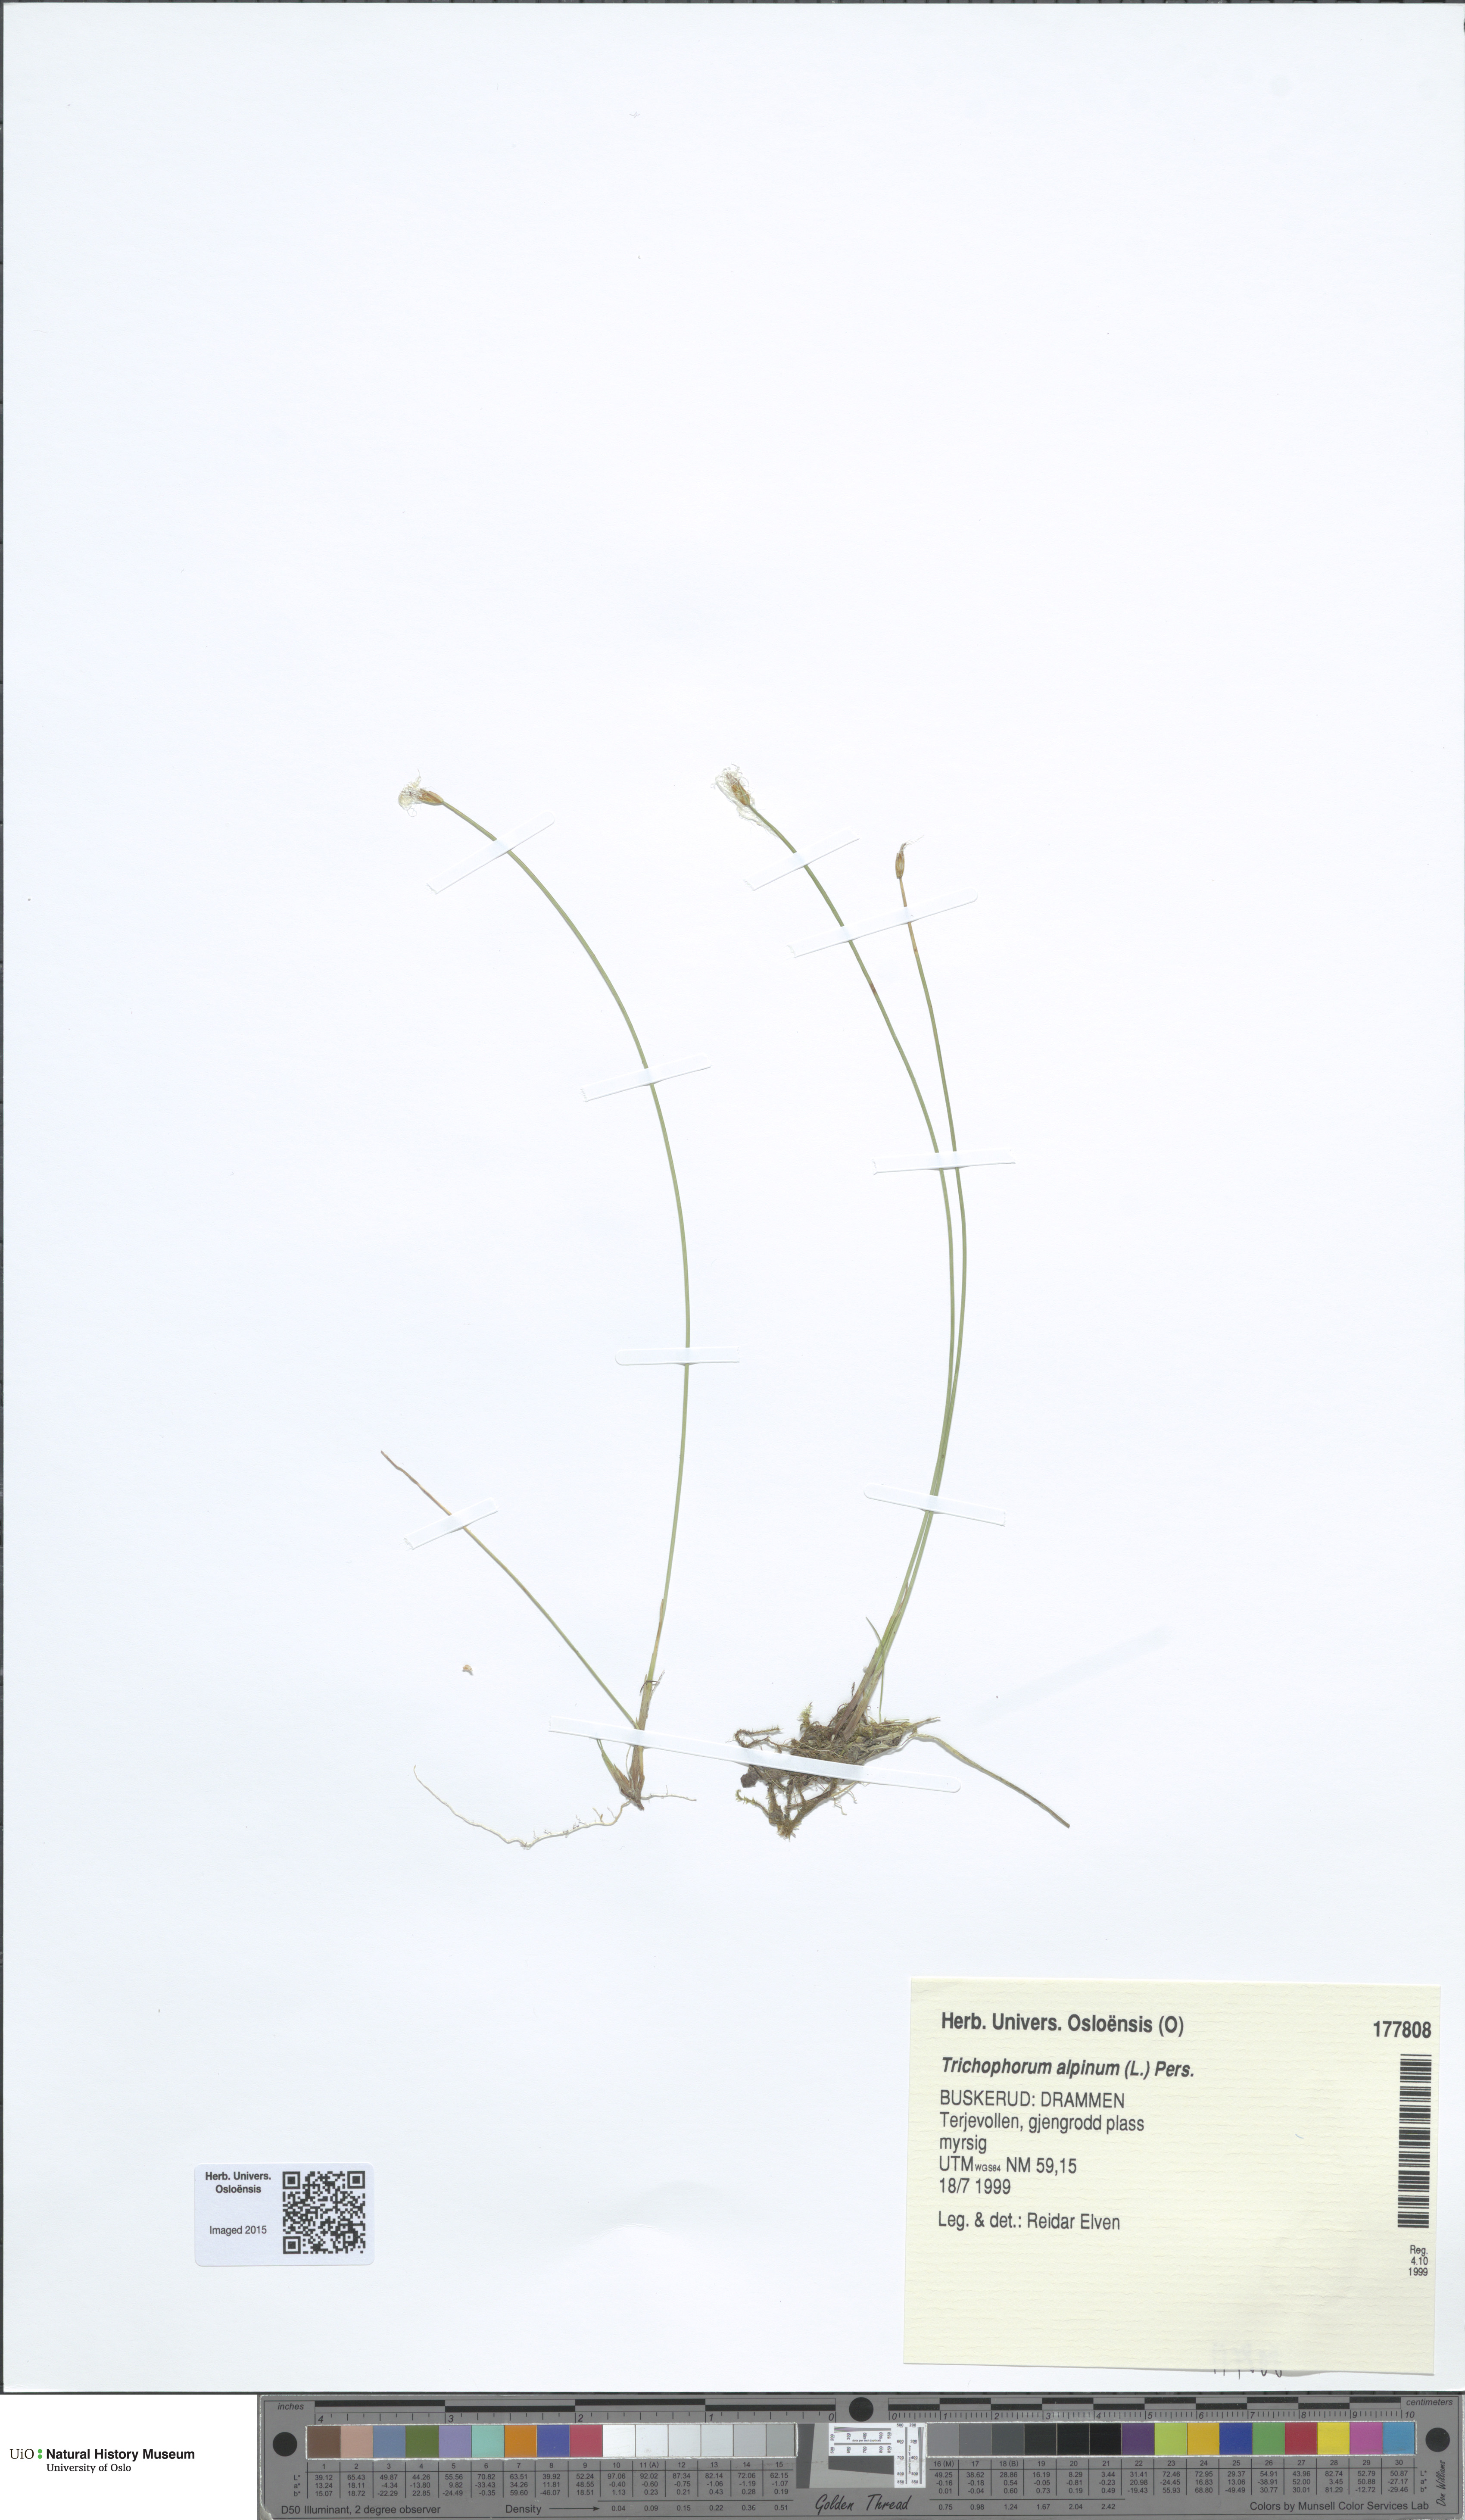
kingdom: Plantae
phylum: Tracheophyta
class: Liliopsida
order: Poales
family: Cyperaceae
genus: Trichophorum
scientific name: Trichophorum alpinum
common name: Alpine bulrush
